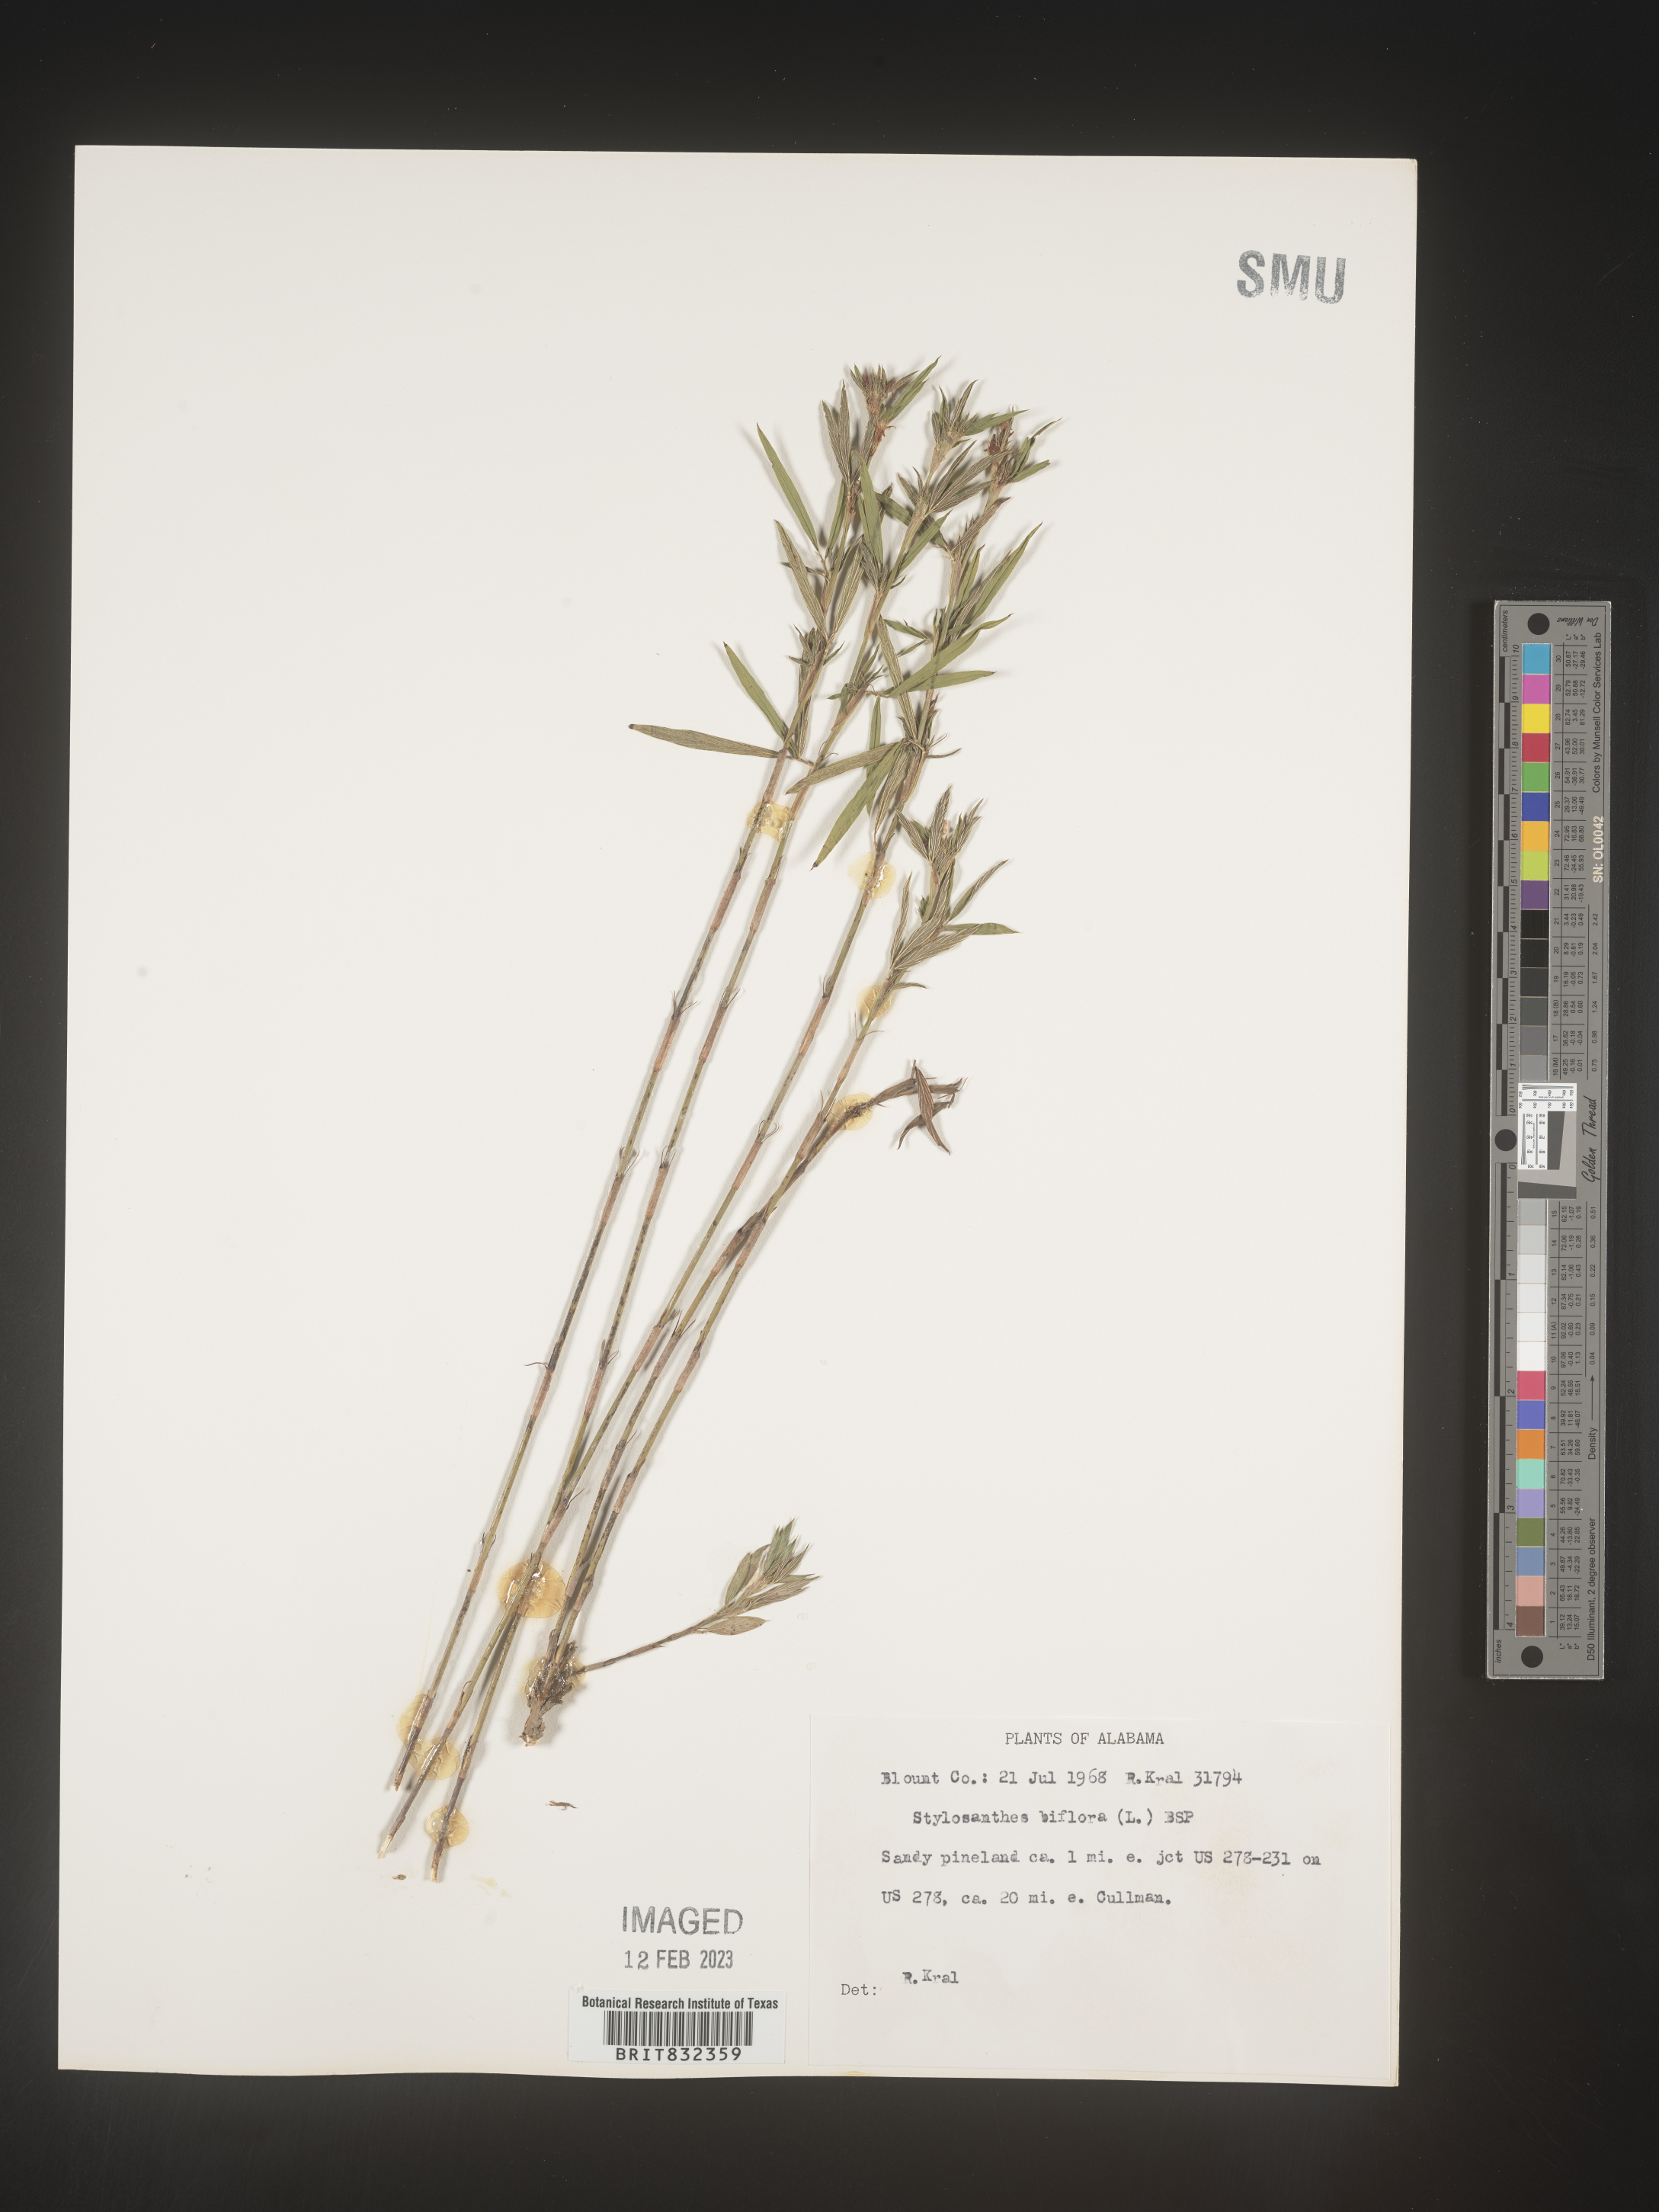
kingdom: Plantae
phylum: Tracheophyta
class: Magnoliopsida
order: Fabales
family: Fabaceae
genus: Stylosanthes
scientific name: Stylosanthes biflora
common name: Two-flower pencil-flower
